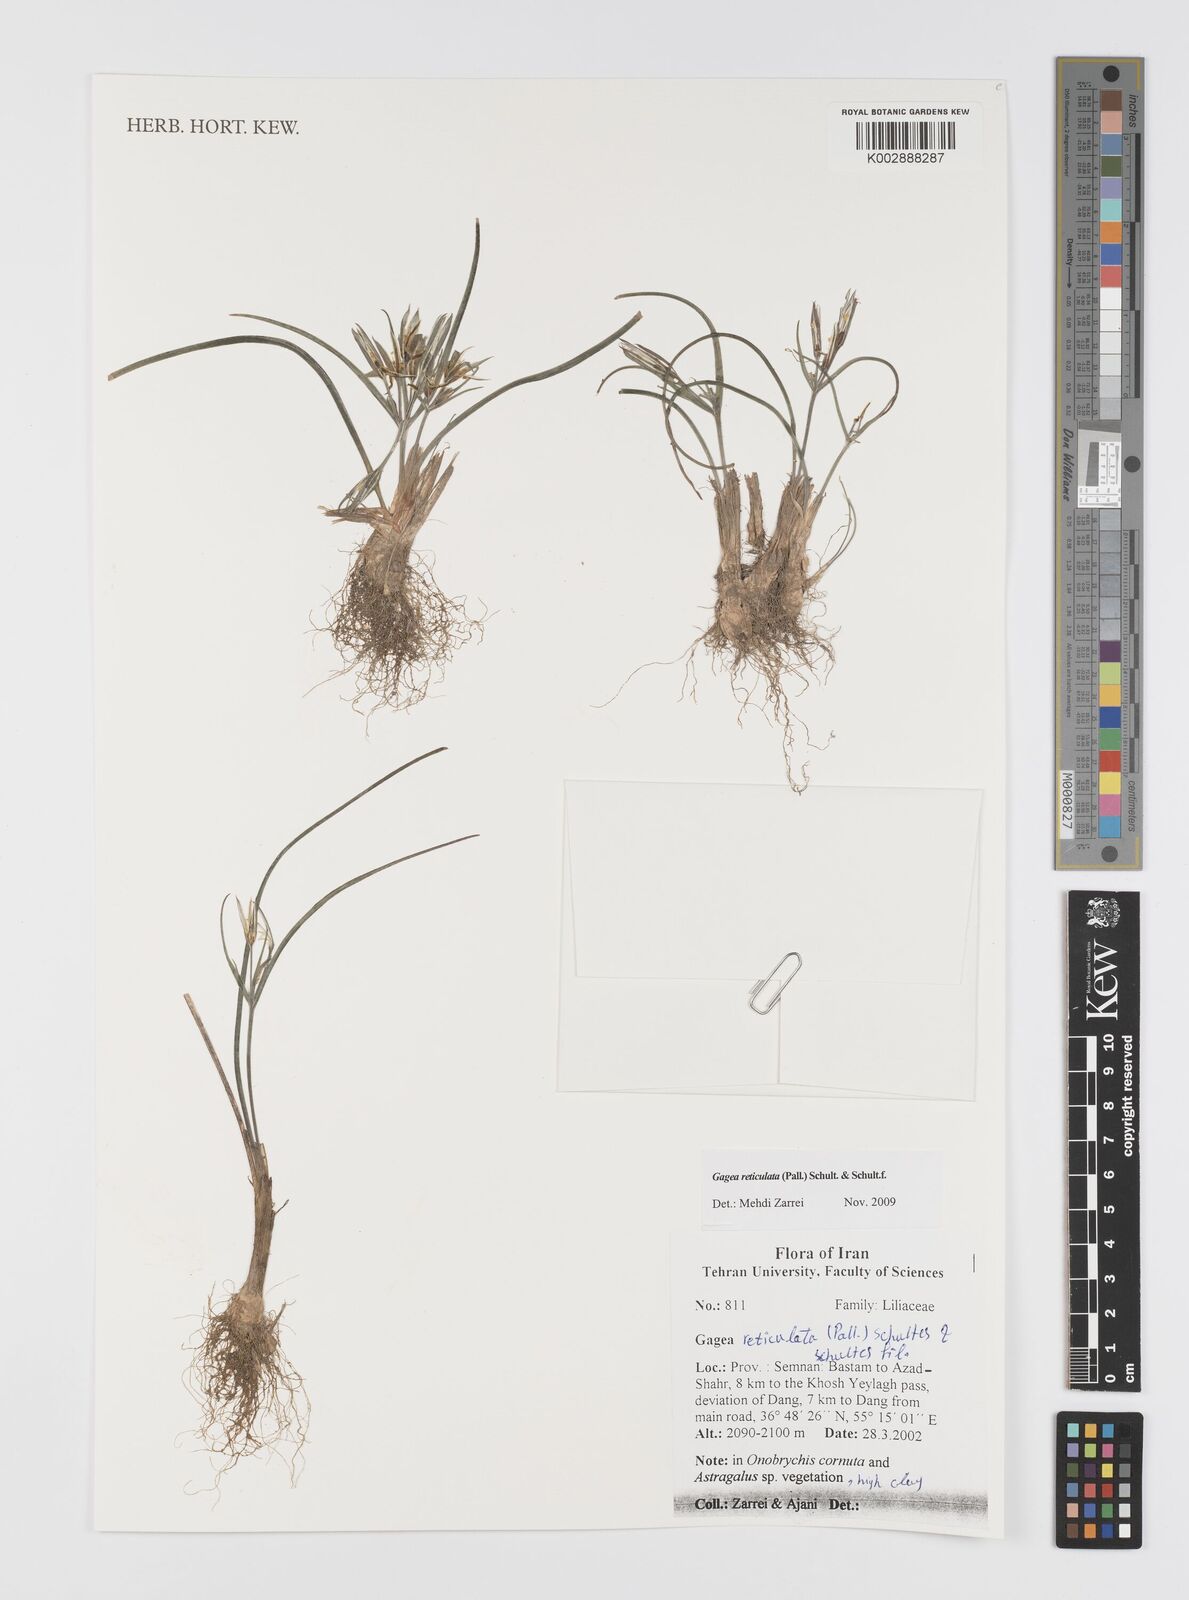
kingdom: Plantae
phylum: Tracheophyta
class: Liliopsida
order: Liliales
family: Liliaceae
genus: Gagea
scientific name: Gagea reticulata
